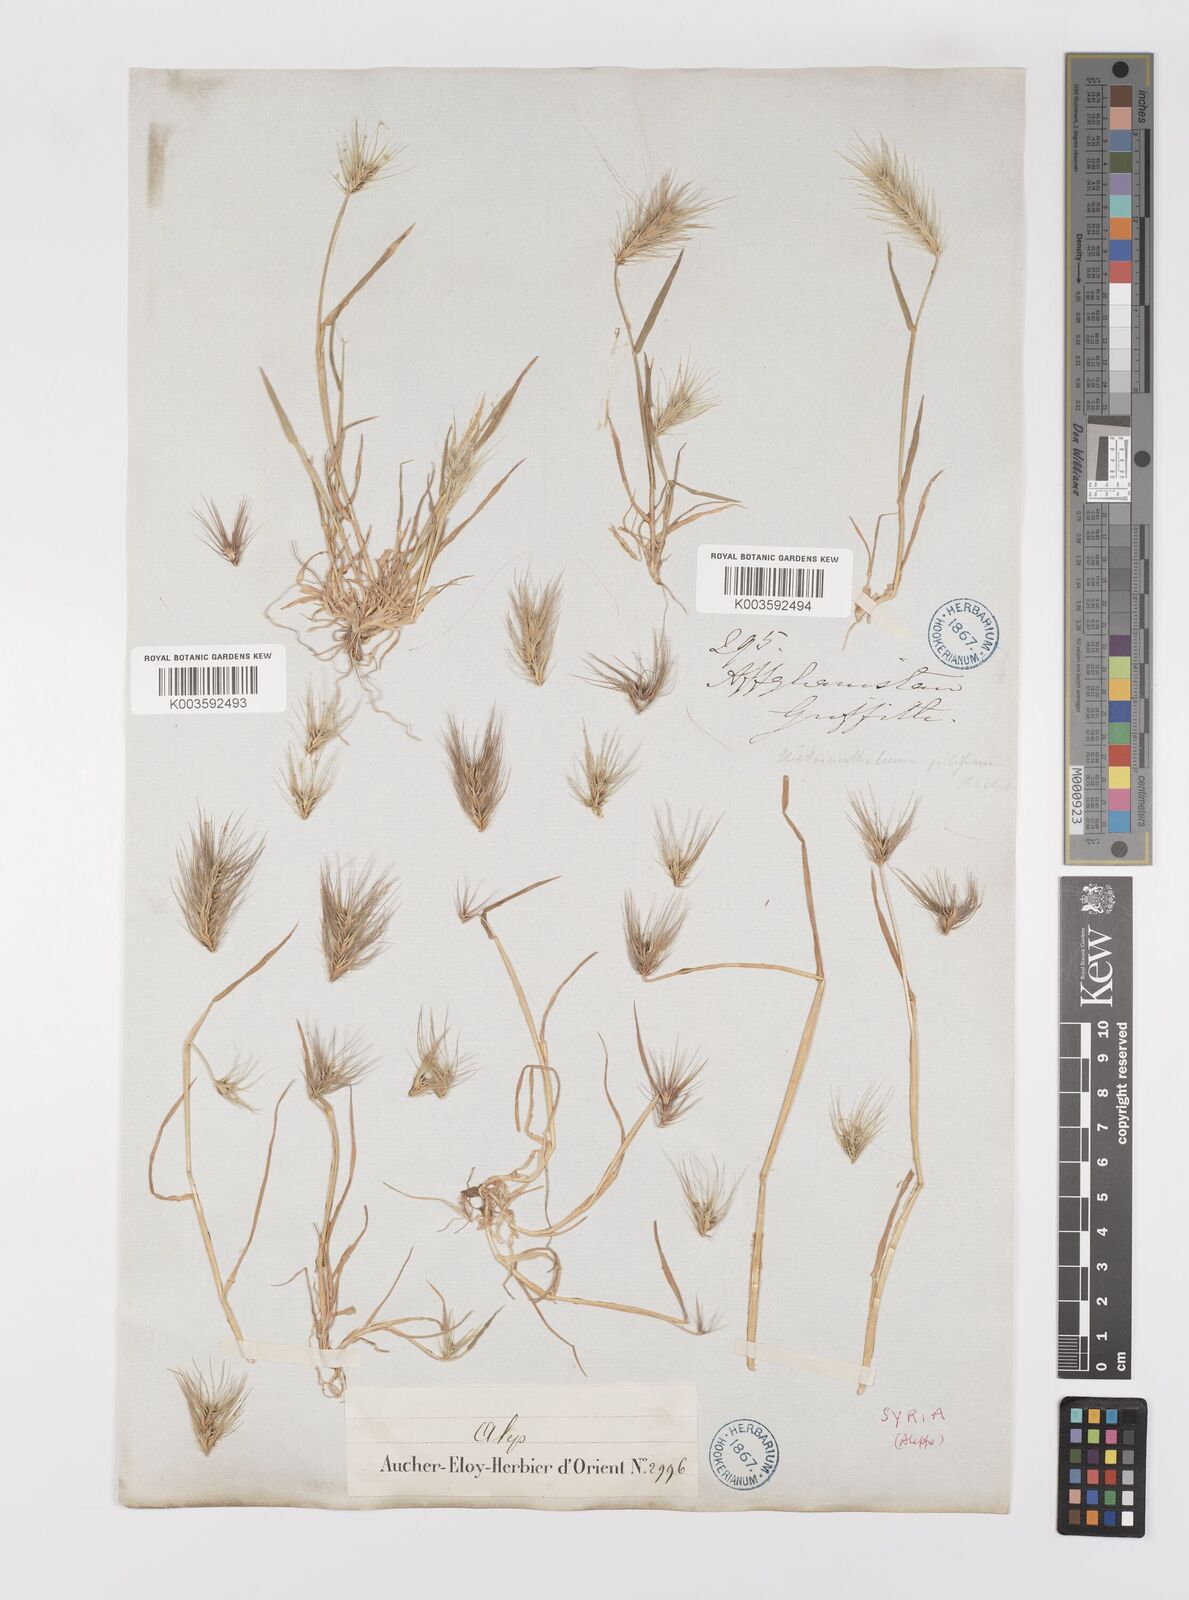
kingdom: Plantae
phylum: Tracheophyta
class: Liliopsida
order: Poales
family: Poaceae
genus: Heteranthelium
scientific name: Heteranthelium piliferum
